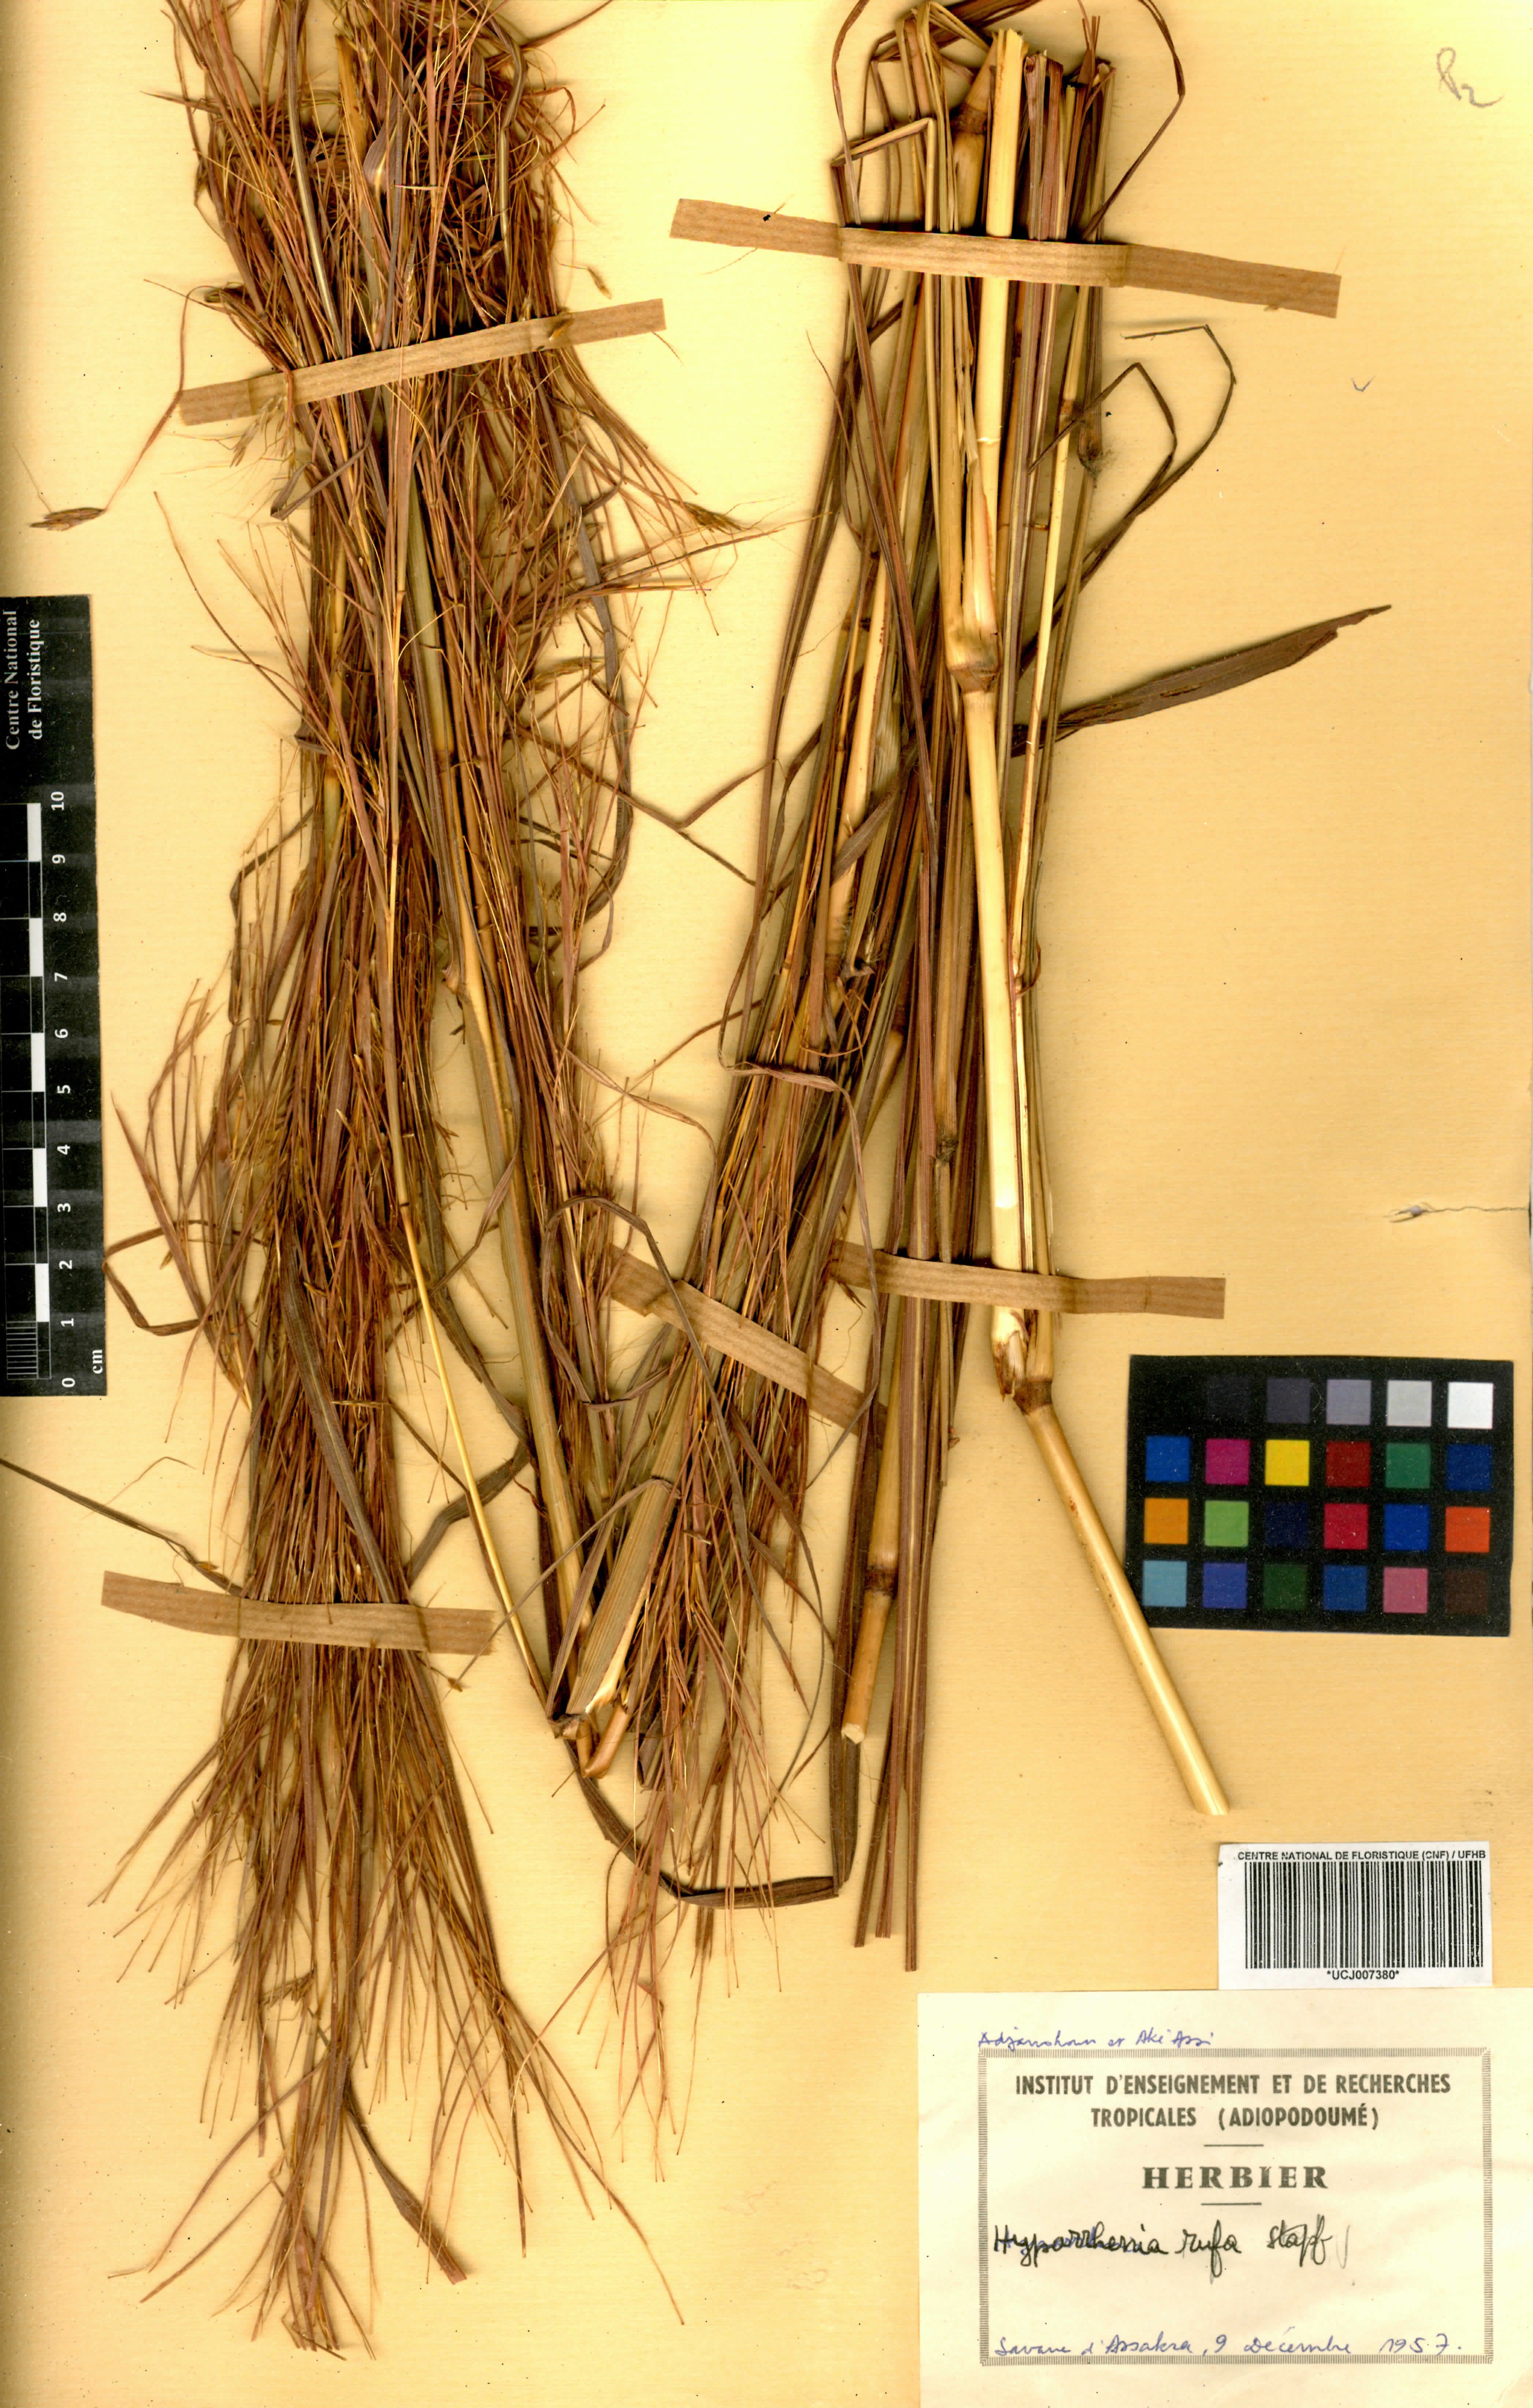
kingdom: Plantae
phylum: Tracheophyta
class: Liliopsida
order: Poales
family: Poaceae
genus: Hyparrhenia
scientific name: Hyparrhenia rufa
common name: Jaraguagrass
